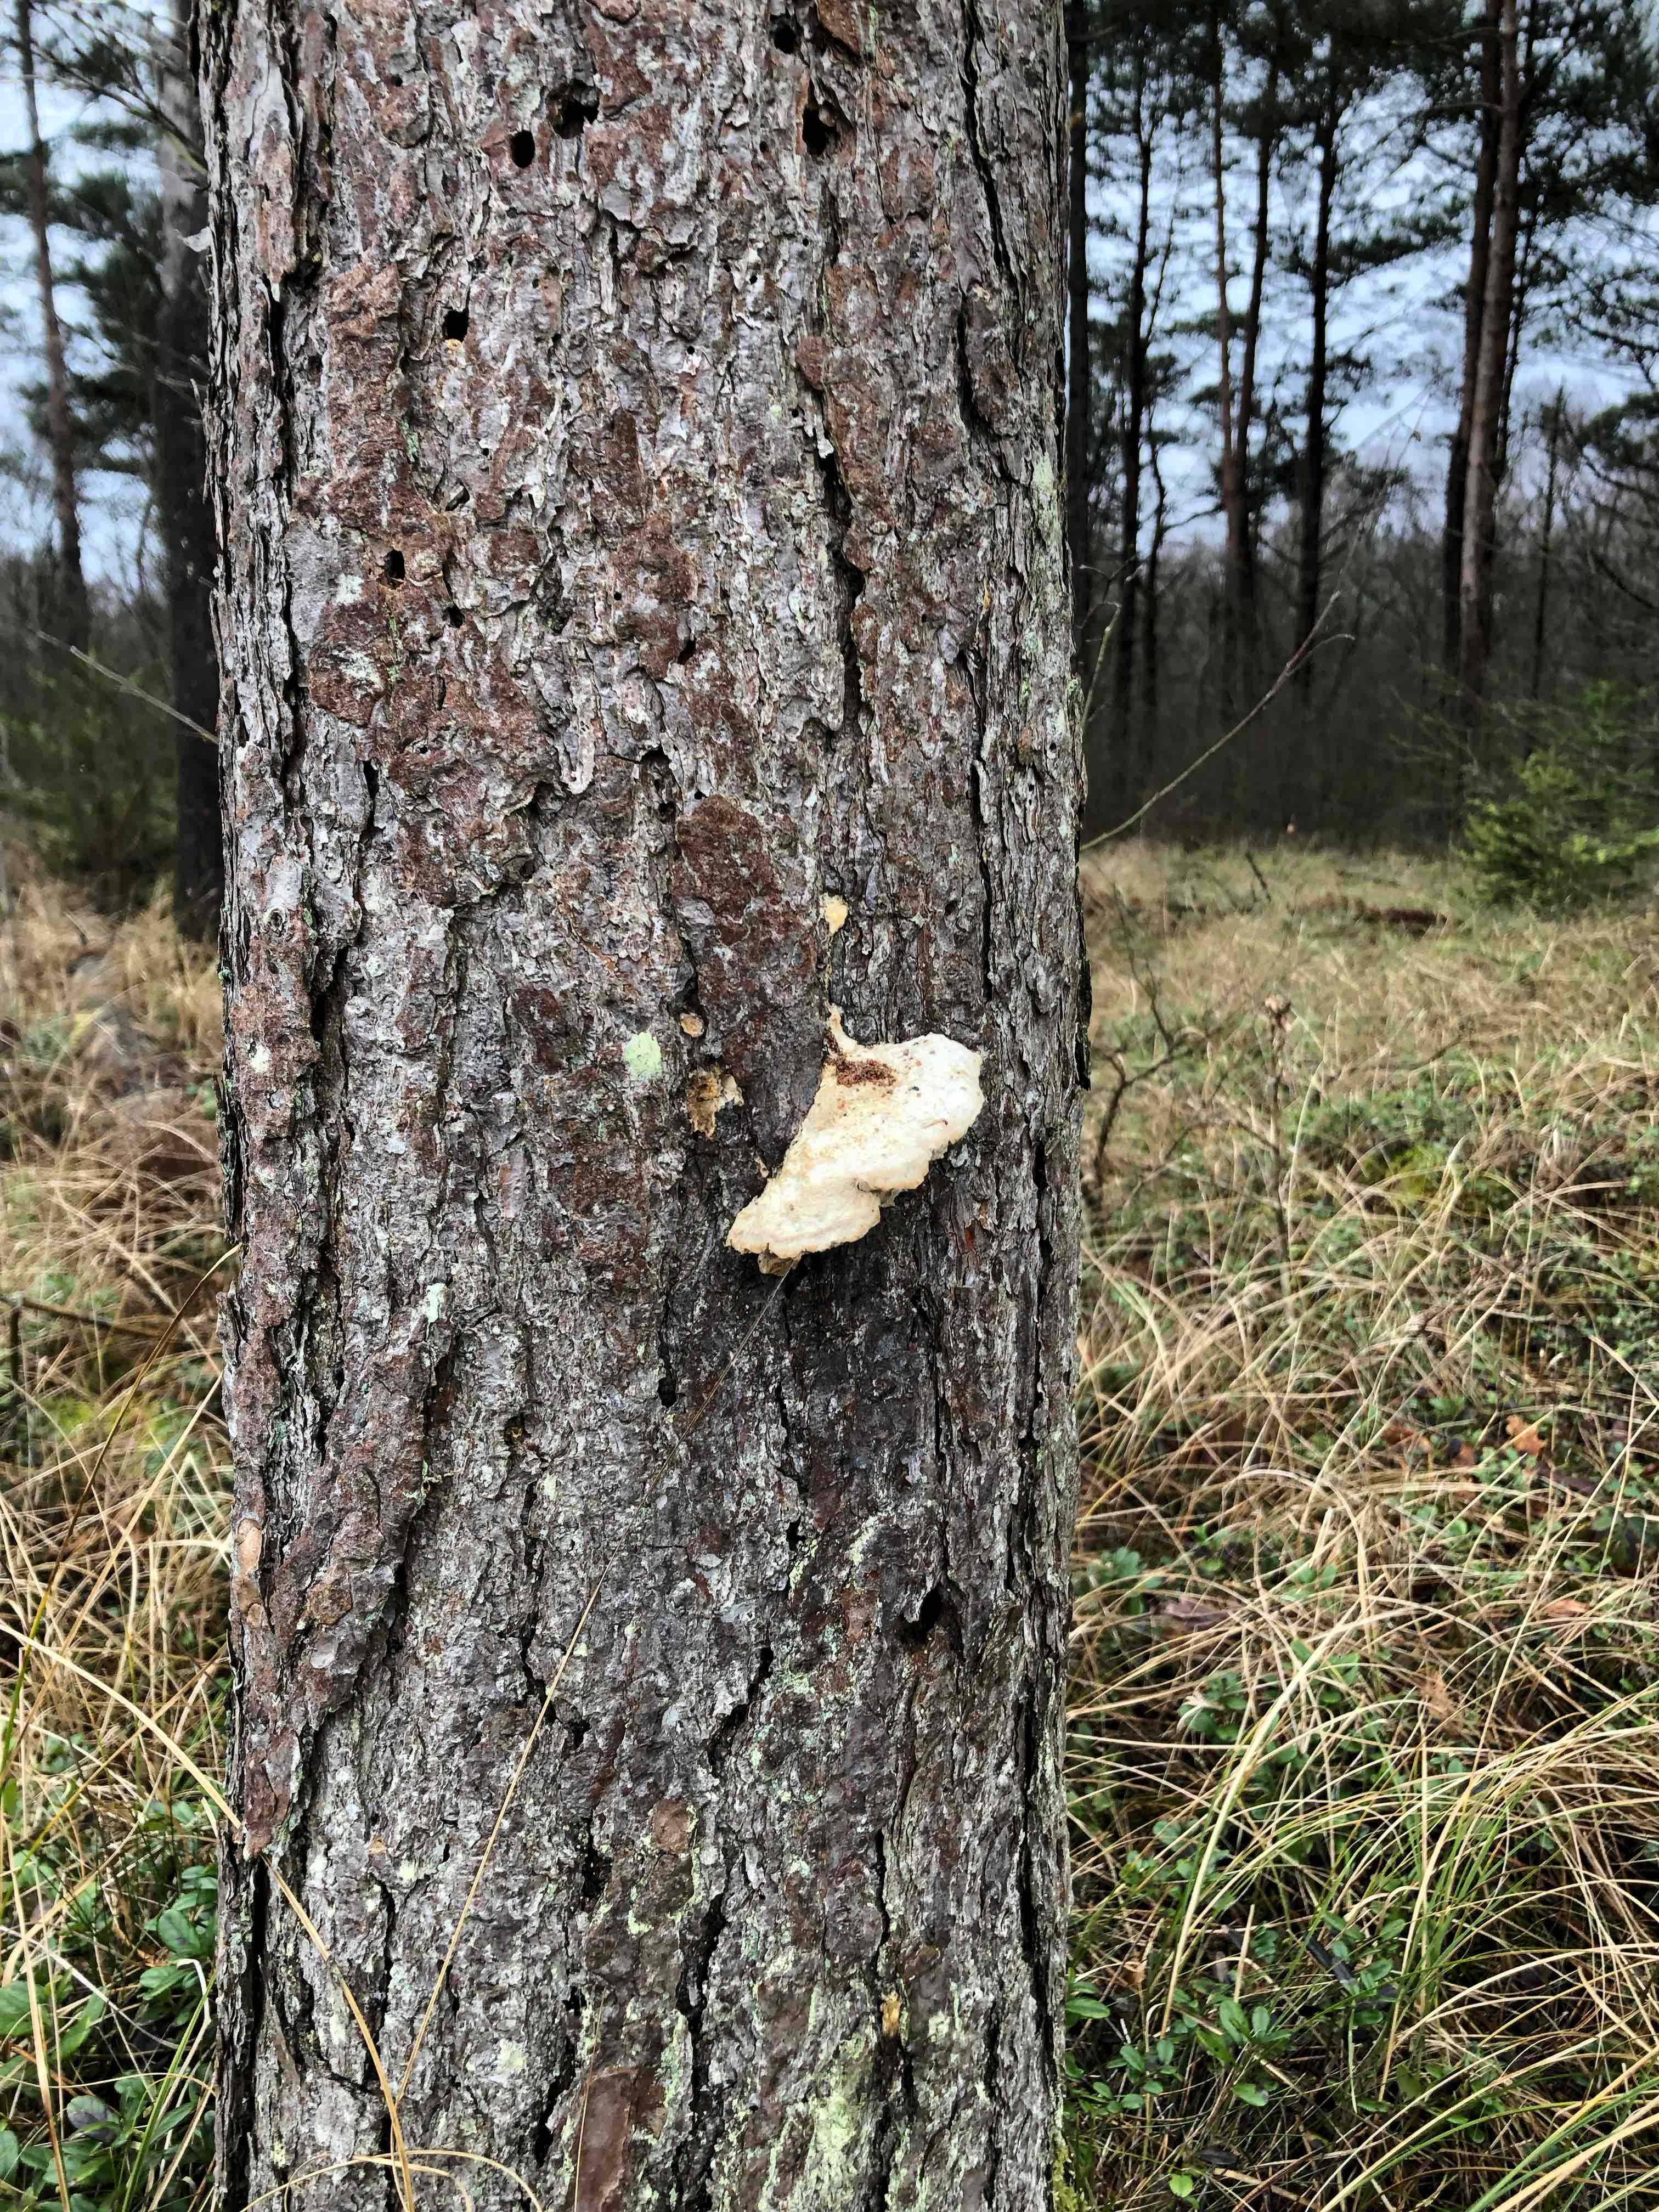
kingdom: Fungi
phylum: Basidiomycota
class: Agaricomycetes
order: Polyporales
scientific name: Polyporales
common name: poresvampordenen
